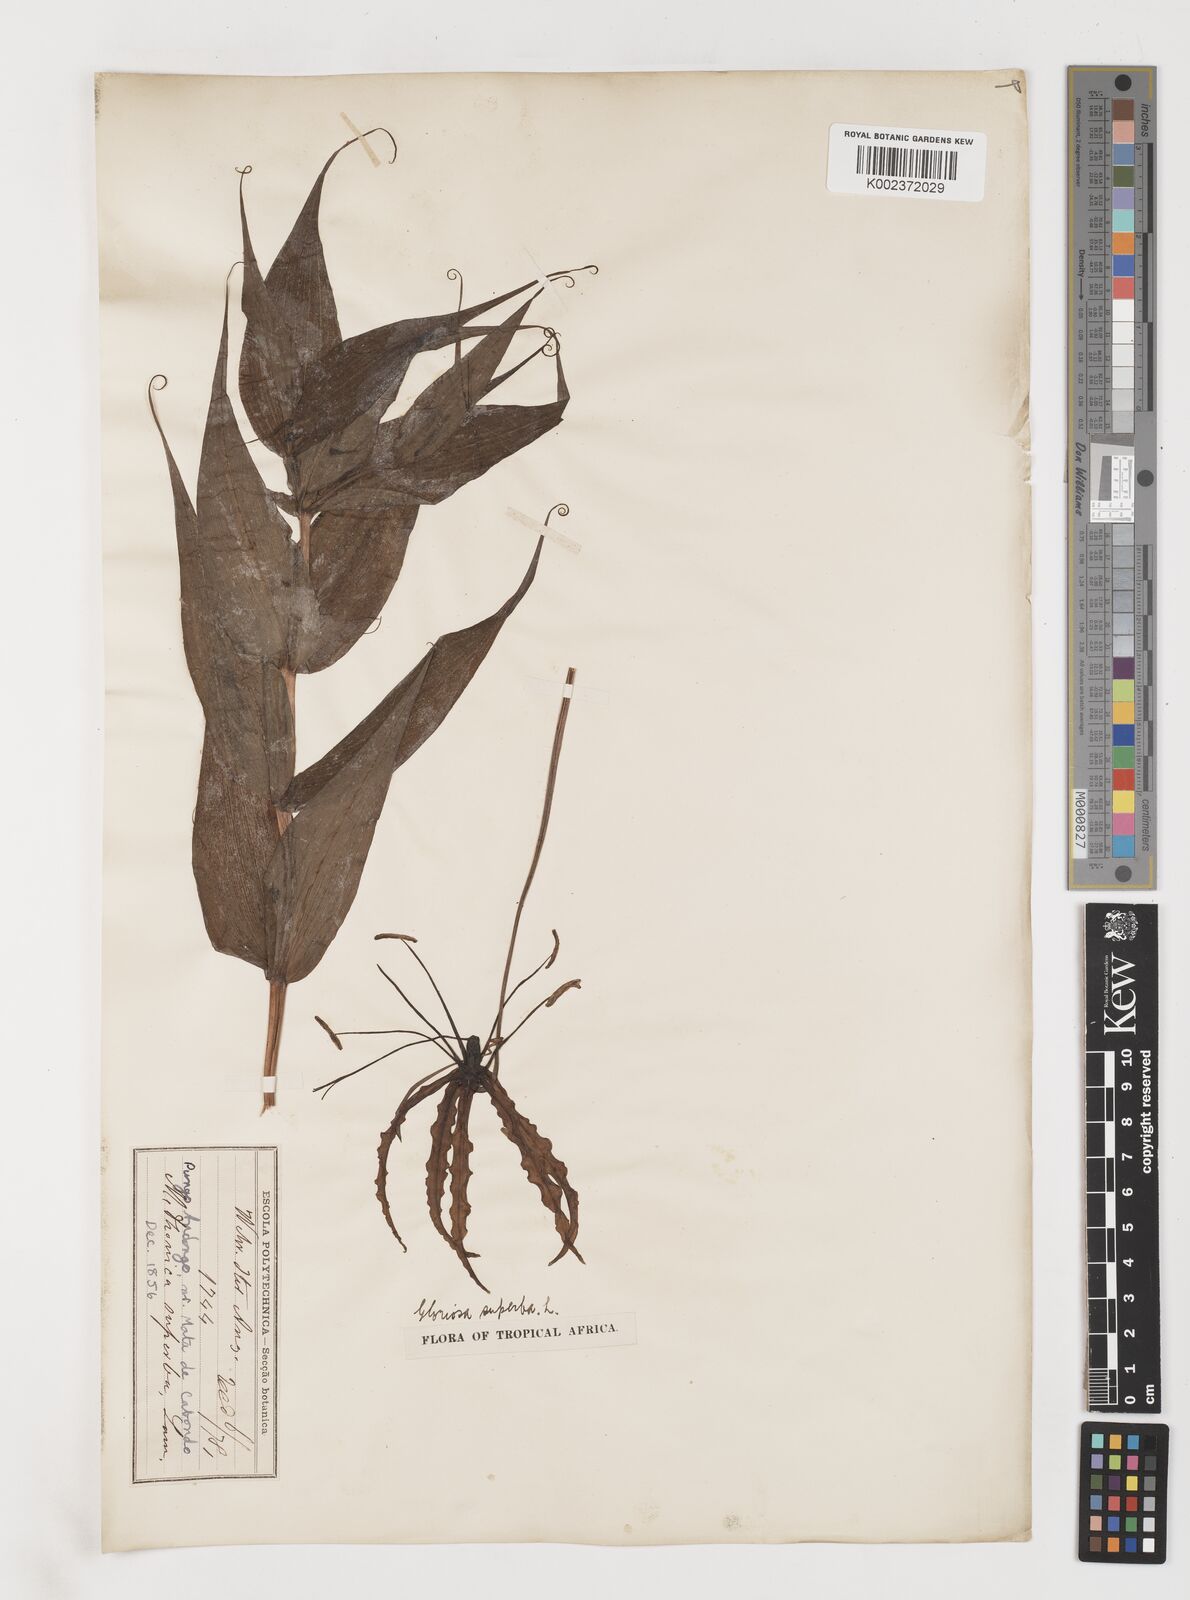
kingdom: Plantae
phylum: Tracheophyta
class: Liliopsida
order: Liliales
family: Colchicaceae
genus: Gloriosa
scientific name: Gloriosa superba
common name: Flame lily
